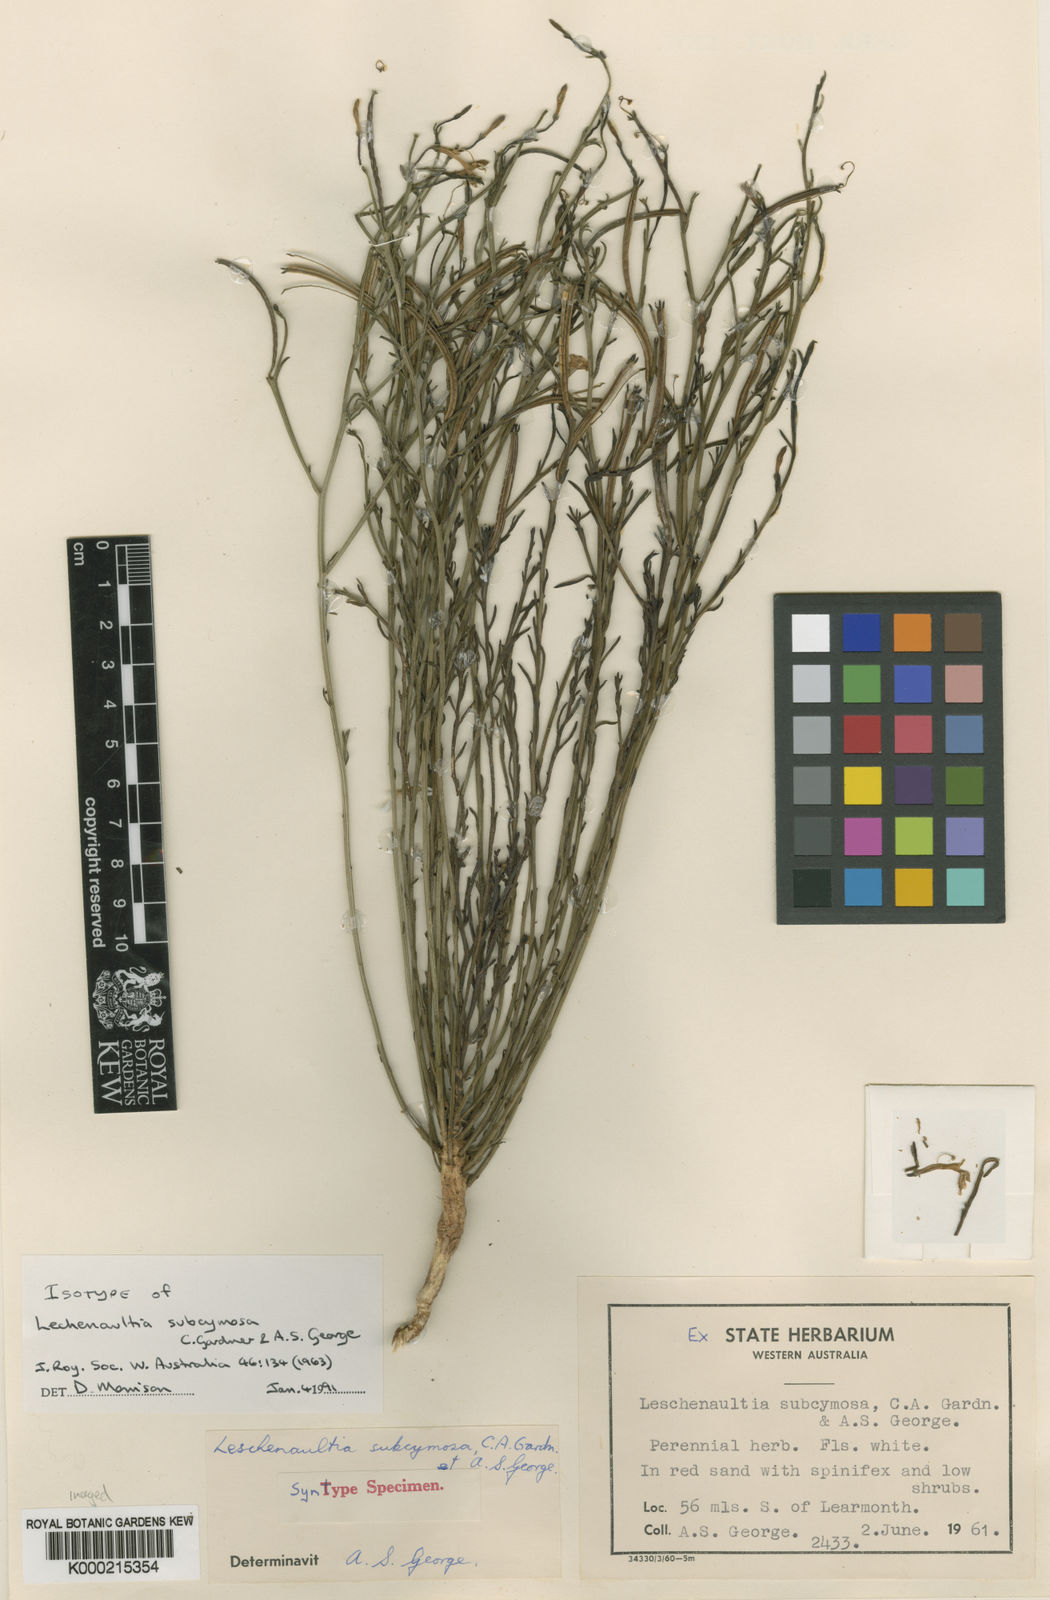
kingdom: Plantae
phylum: Tracheophyta
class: Magnoliopsida
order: Asterales
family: Goodeniaceae
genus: Leschenaultia
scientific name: Leschenaultia subcymosa
